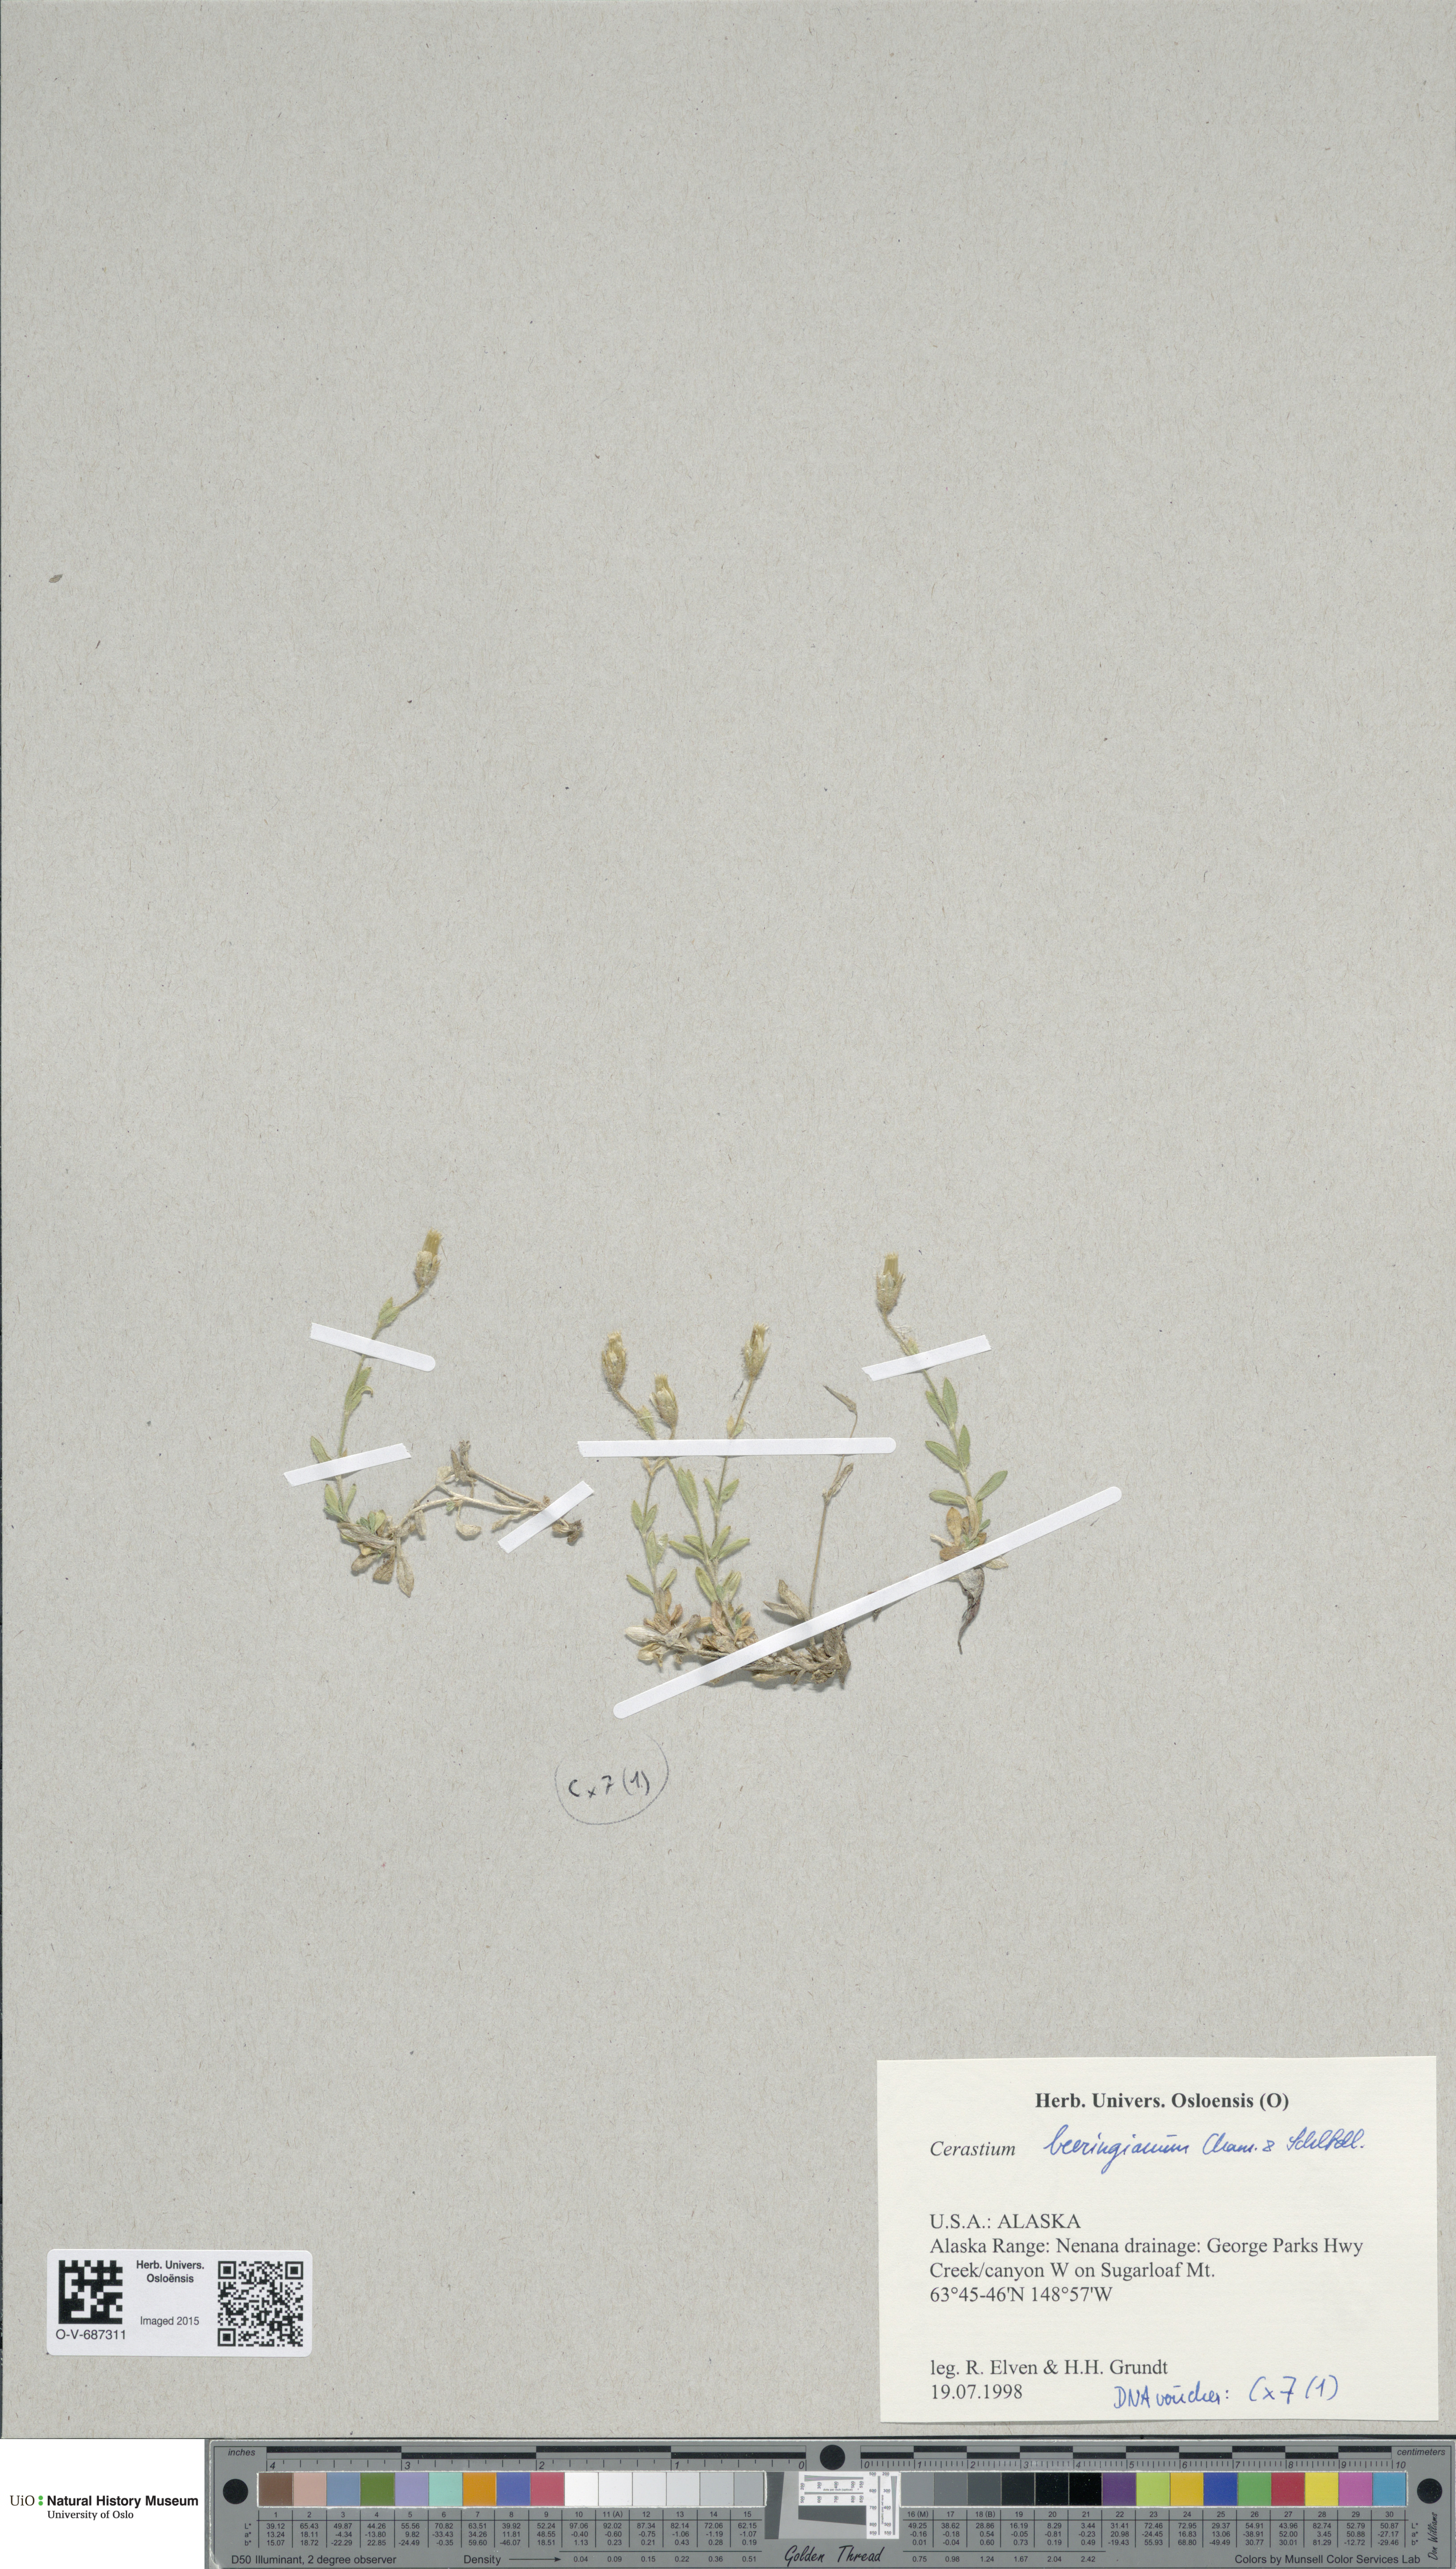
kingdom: Plantae
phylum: Tracheophyta
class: Magnoliopsida
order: Caryophyllales
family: Caryophyllaceae
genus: Cerastium
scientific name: Cerastium beeringianum
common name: Bering mouse-ear chickweed
